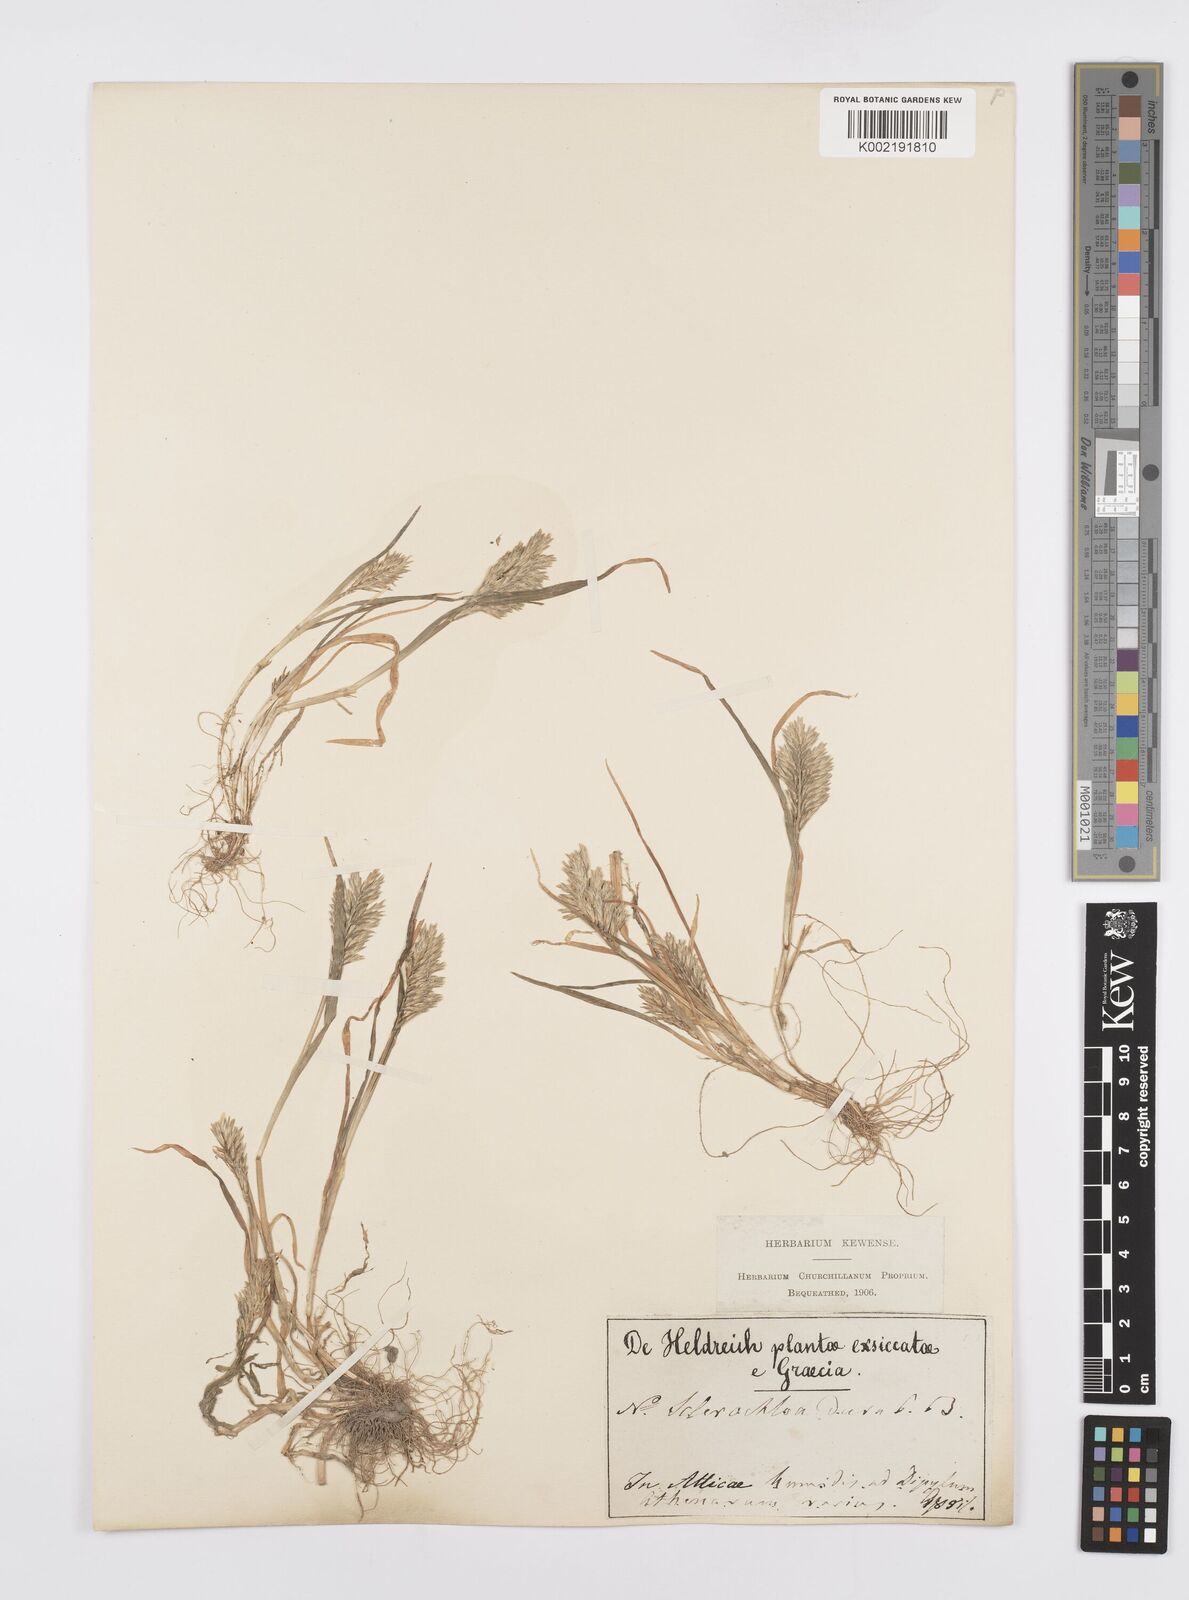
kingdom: Plantae
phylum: Tracheophyta
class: Liliopsida
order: Poales
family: Poaceae
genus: Sclerochloa
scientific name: Sclerochloa dura
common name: Common hardgrass
